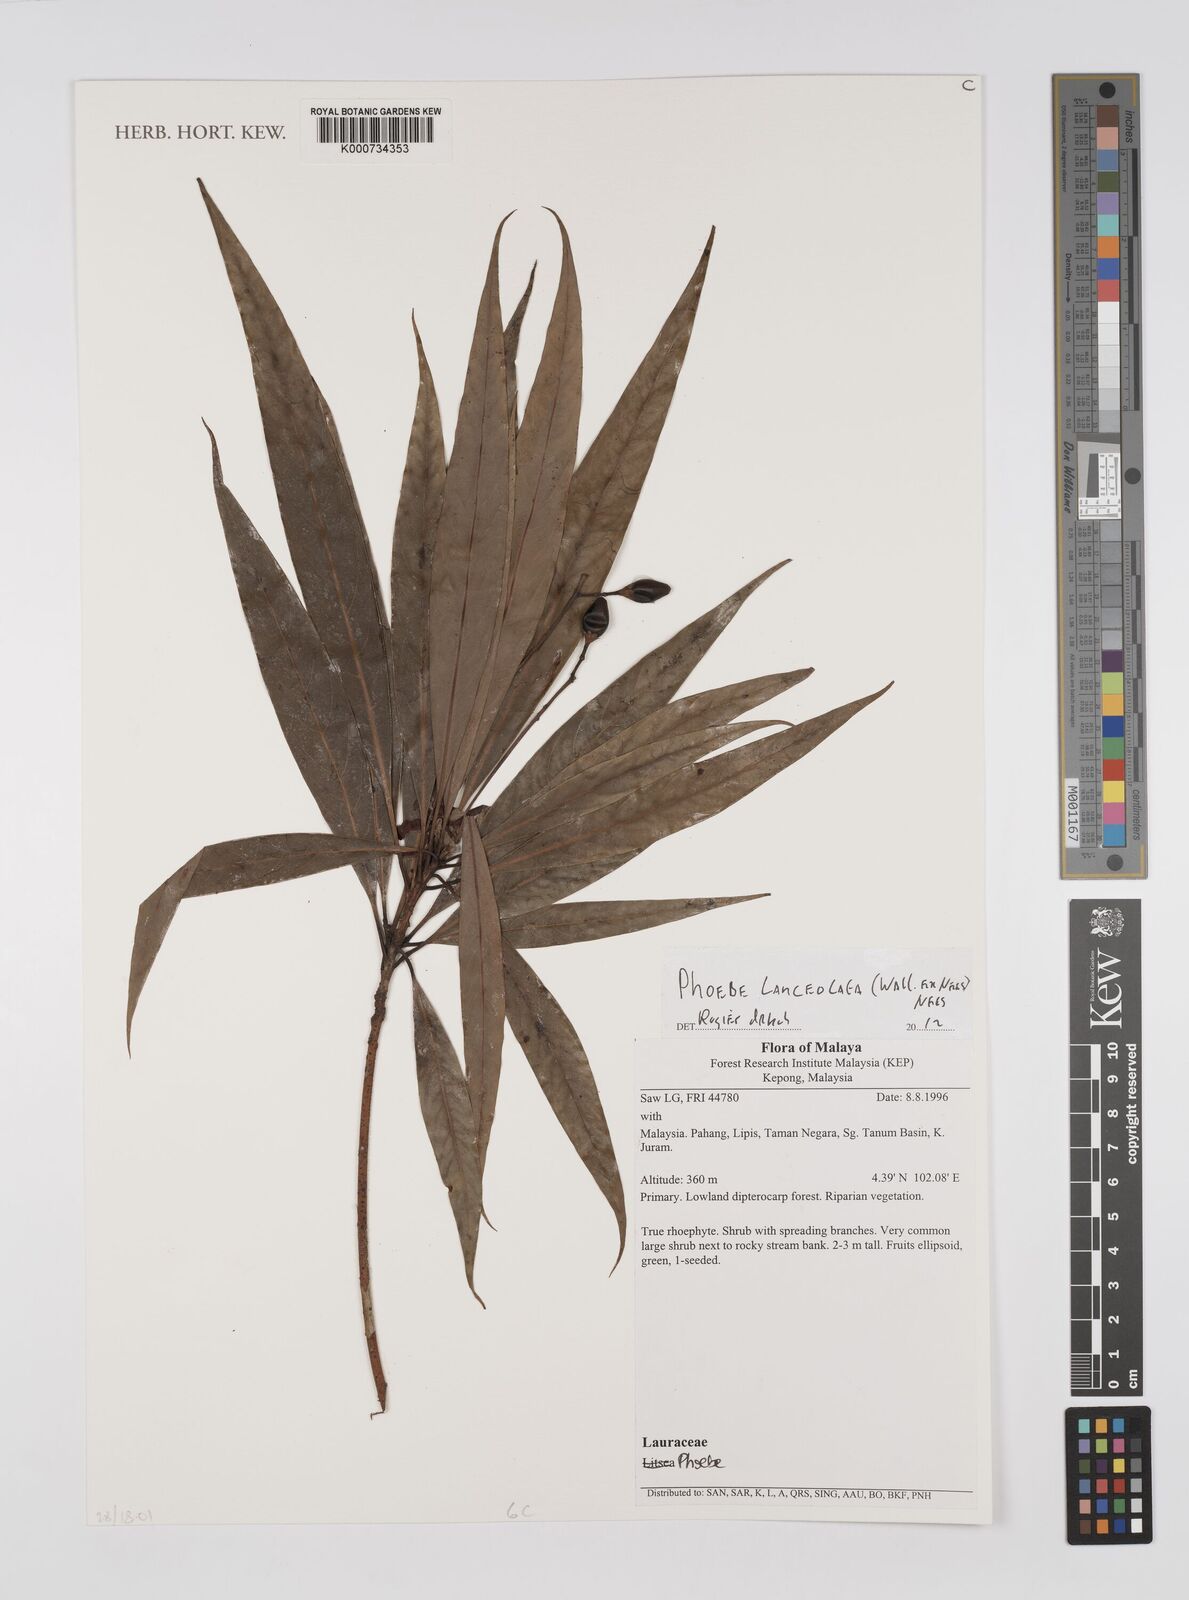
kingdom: Plantae
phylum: Tracheophyta
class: Magnoliopsida
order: Laurales
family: Lauraceae
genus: Phoebe
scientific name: Phoebe lanceolata
